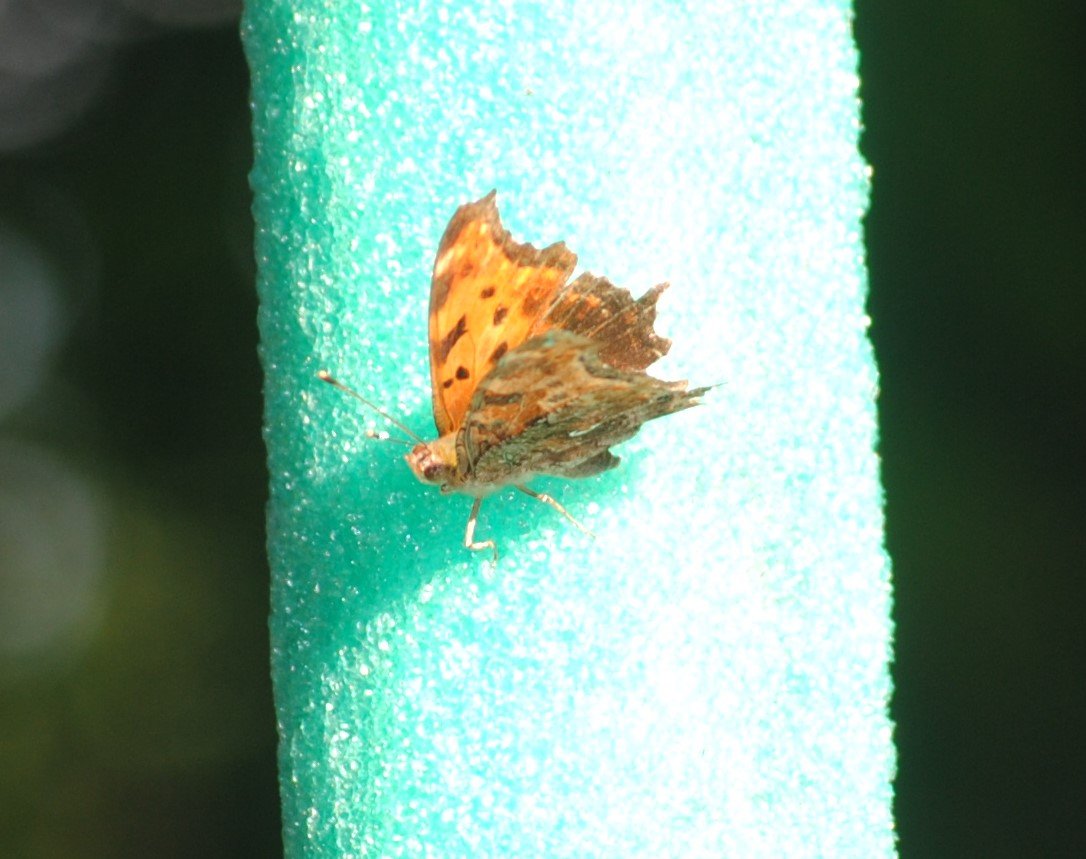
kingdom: Animalia
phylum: Arthropoda
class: Insecta
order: Lepidoptera
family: Nymphalidae
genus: Polygonia
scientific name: Polygonia comma
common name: Eastern Comma
